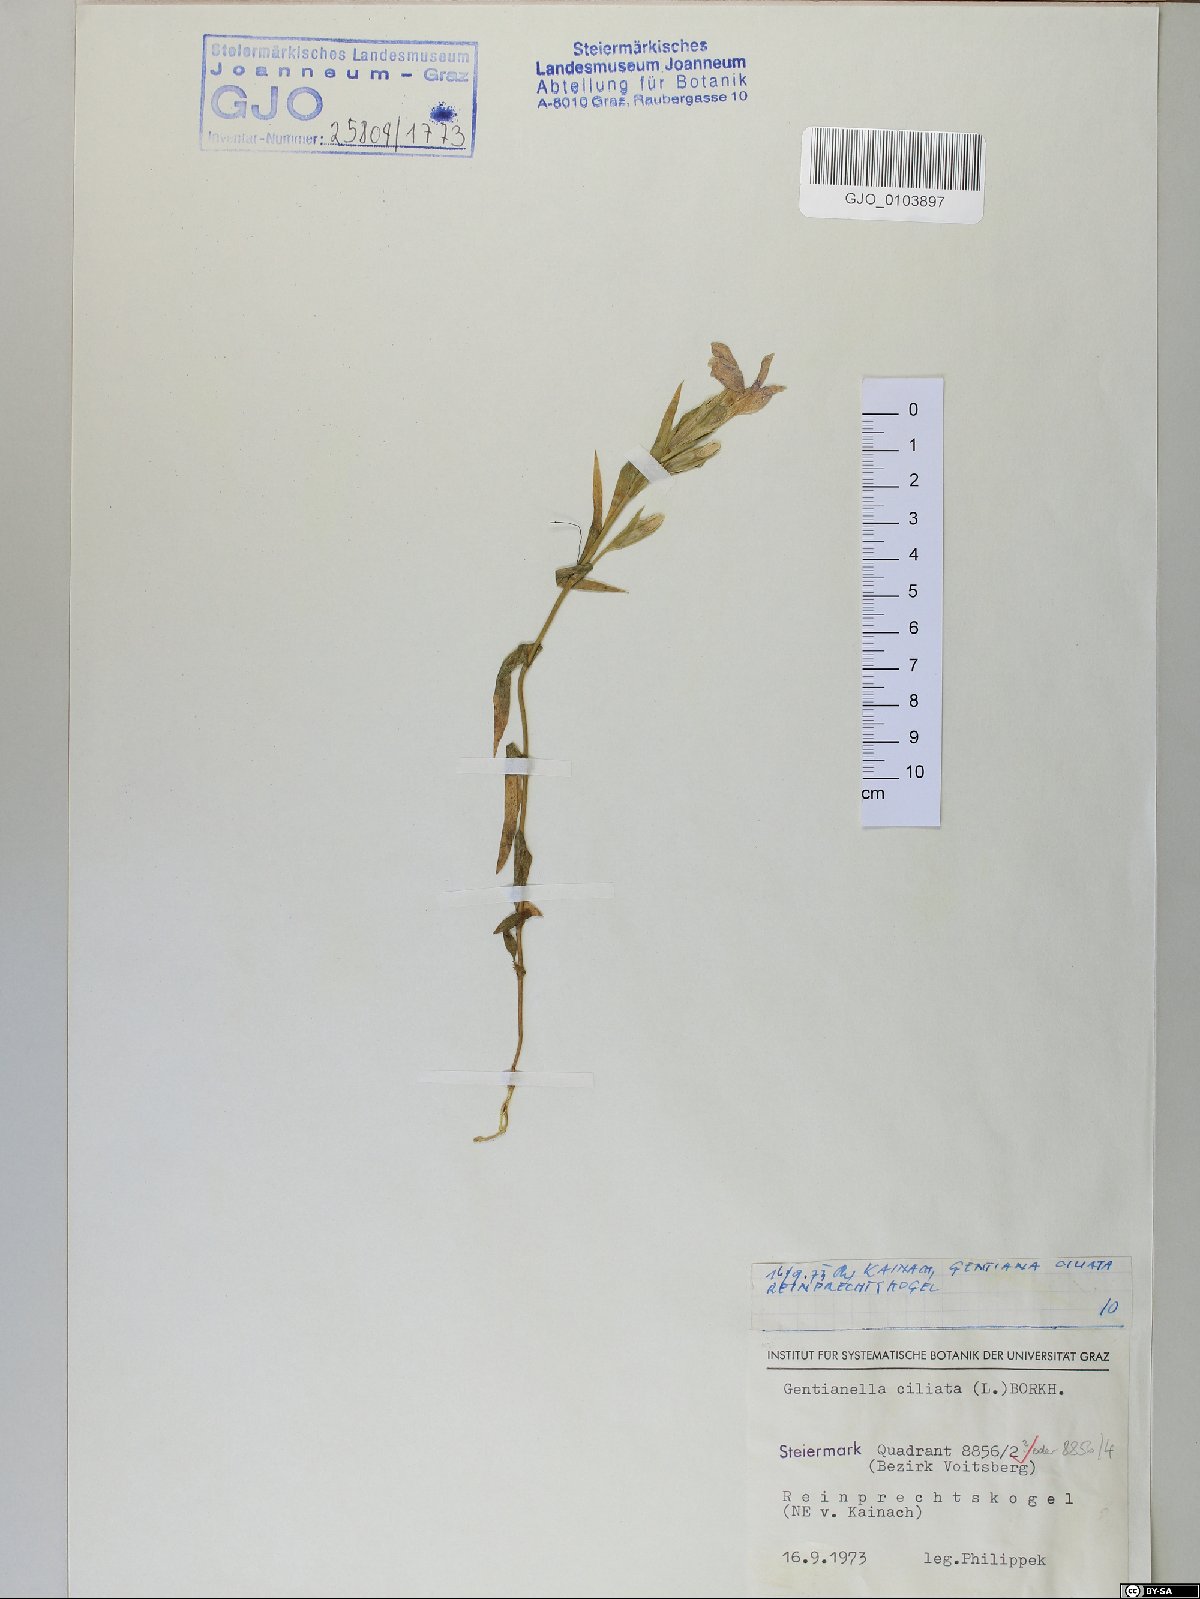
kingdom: Plantae
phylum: Tracheophyta
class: Magnoliopsida
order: Gentianales
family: Gentianaceae
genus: Gentianopsis
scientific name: Gentianopsis ciliata
